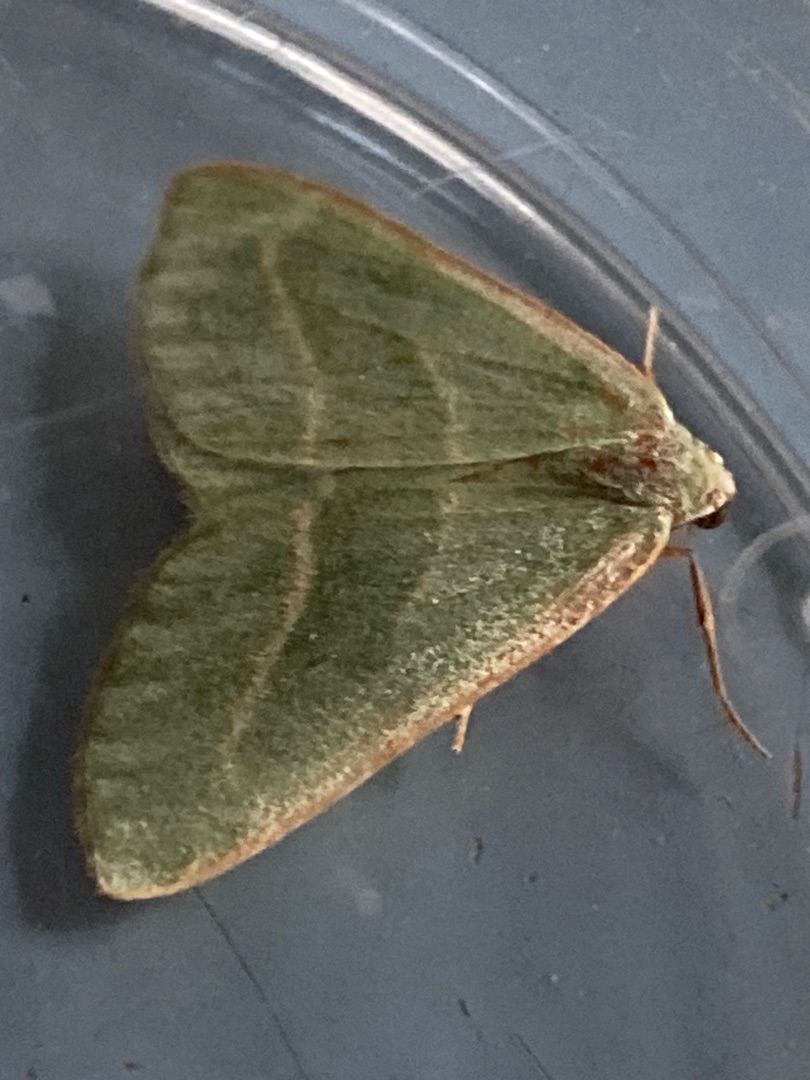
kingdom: Animalia
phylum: Arthropoda
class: Insecta
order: Lepidoptera
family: Geometridae
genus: Hylaea
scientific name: Hylaea fasciaria
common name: Nåleskovs-måler
